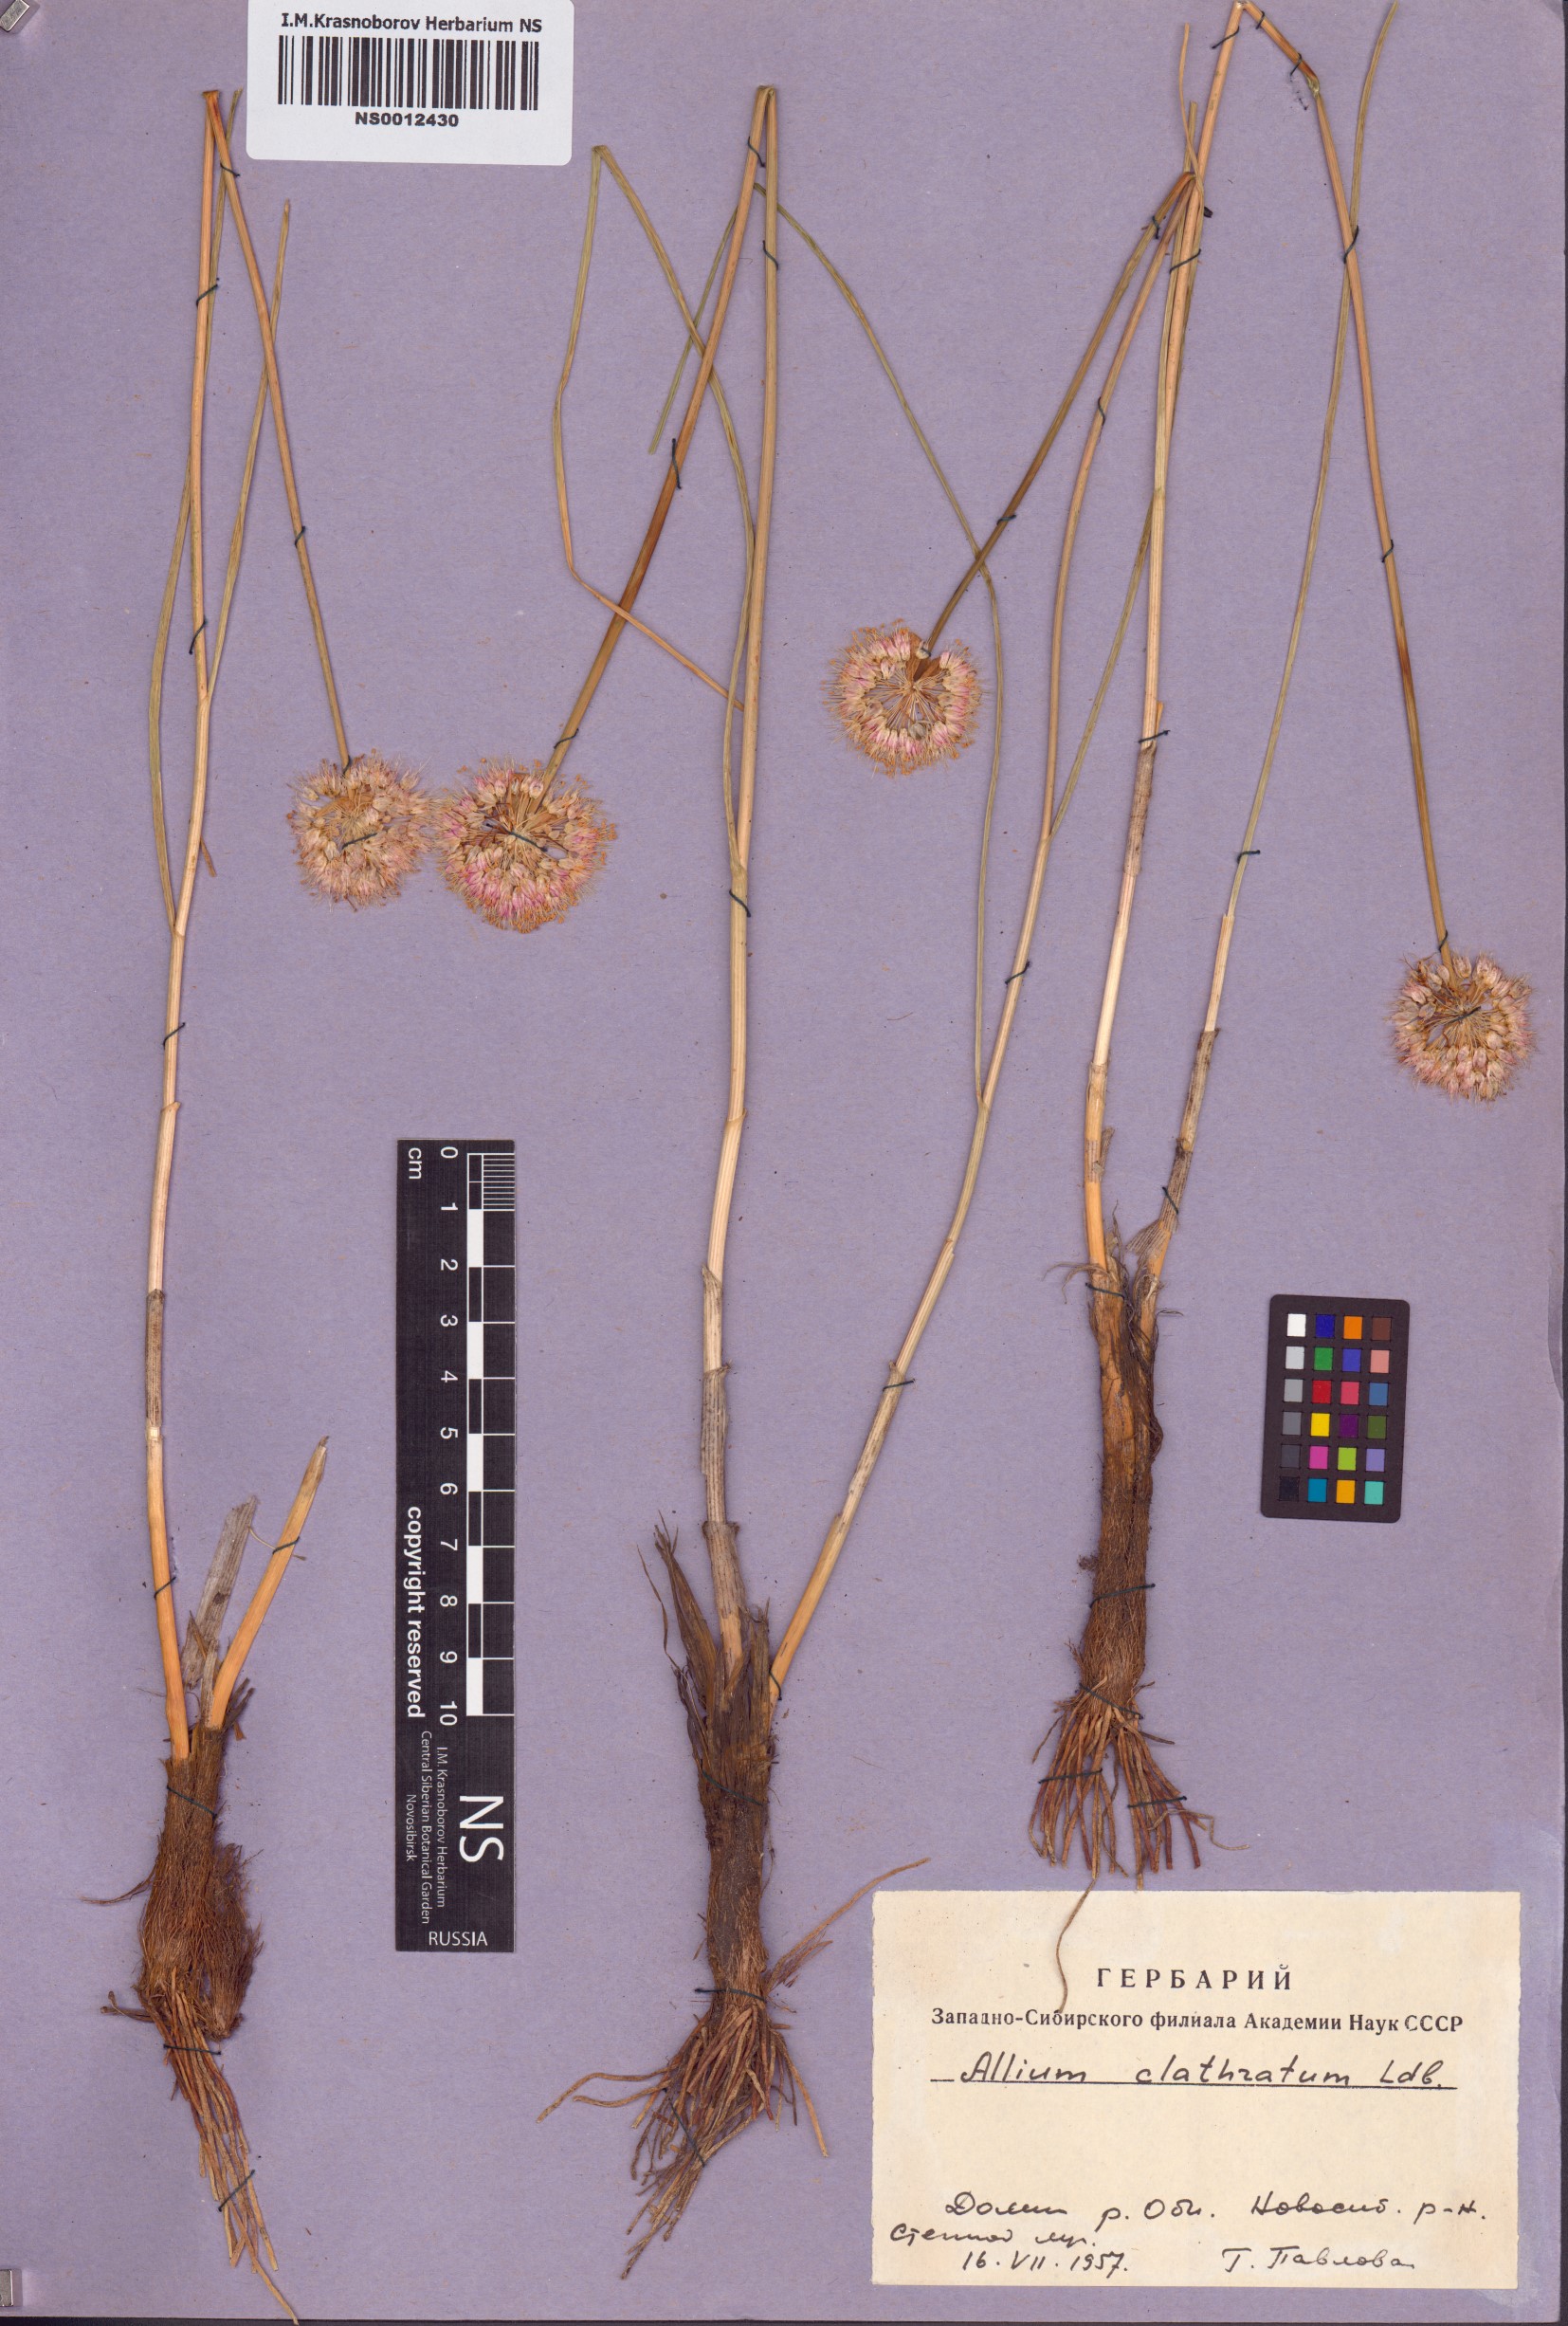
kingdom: Plantae
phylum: Tracheophyta
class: Liliopsida
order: Asparagales
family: Amaryllidaceae
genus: Allium
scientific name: Allium clathratum
